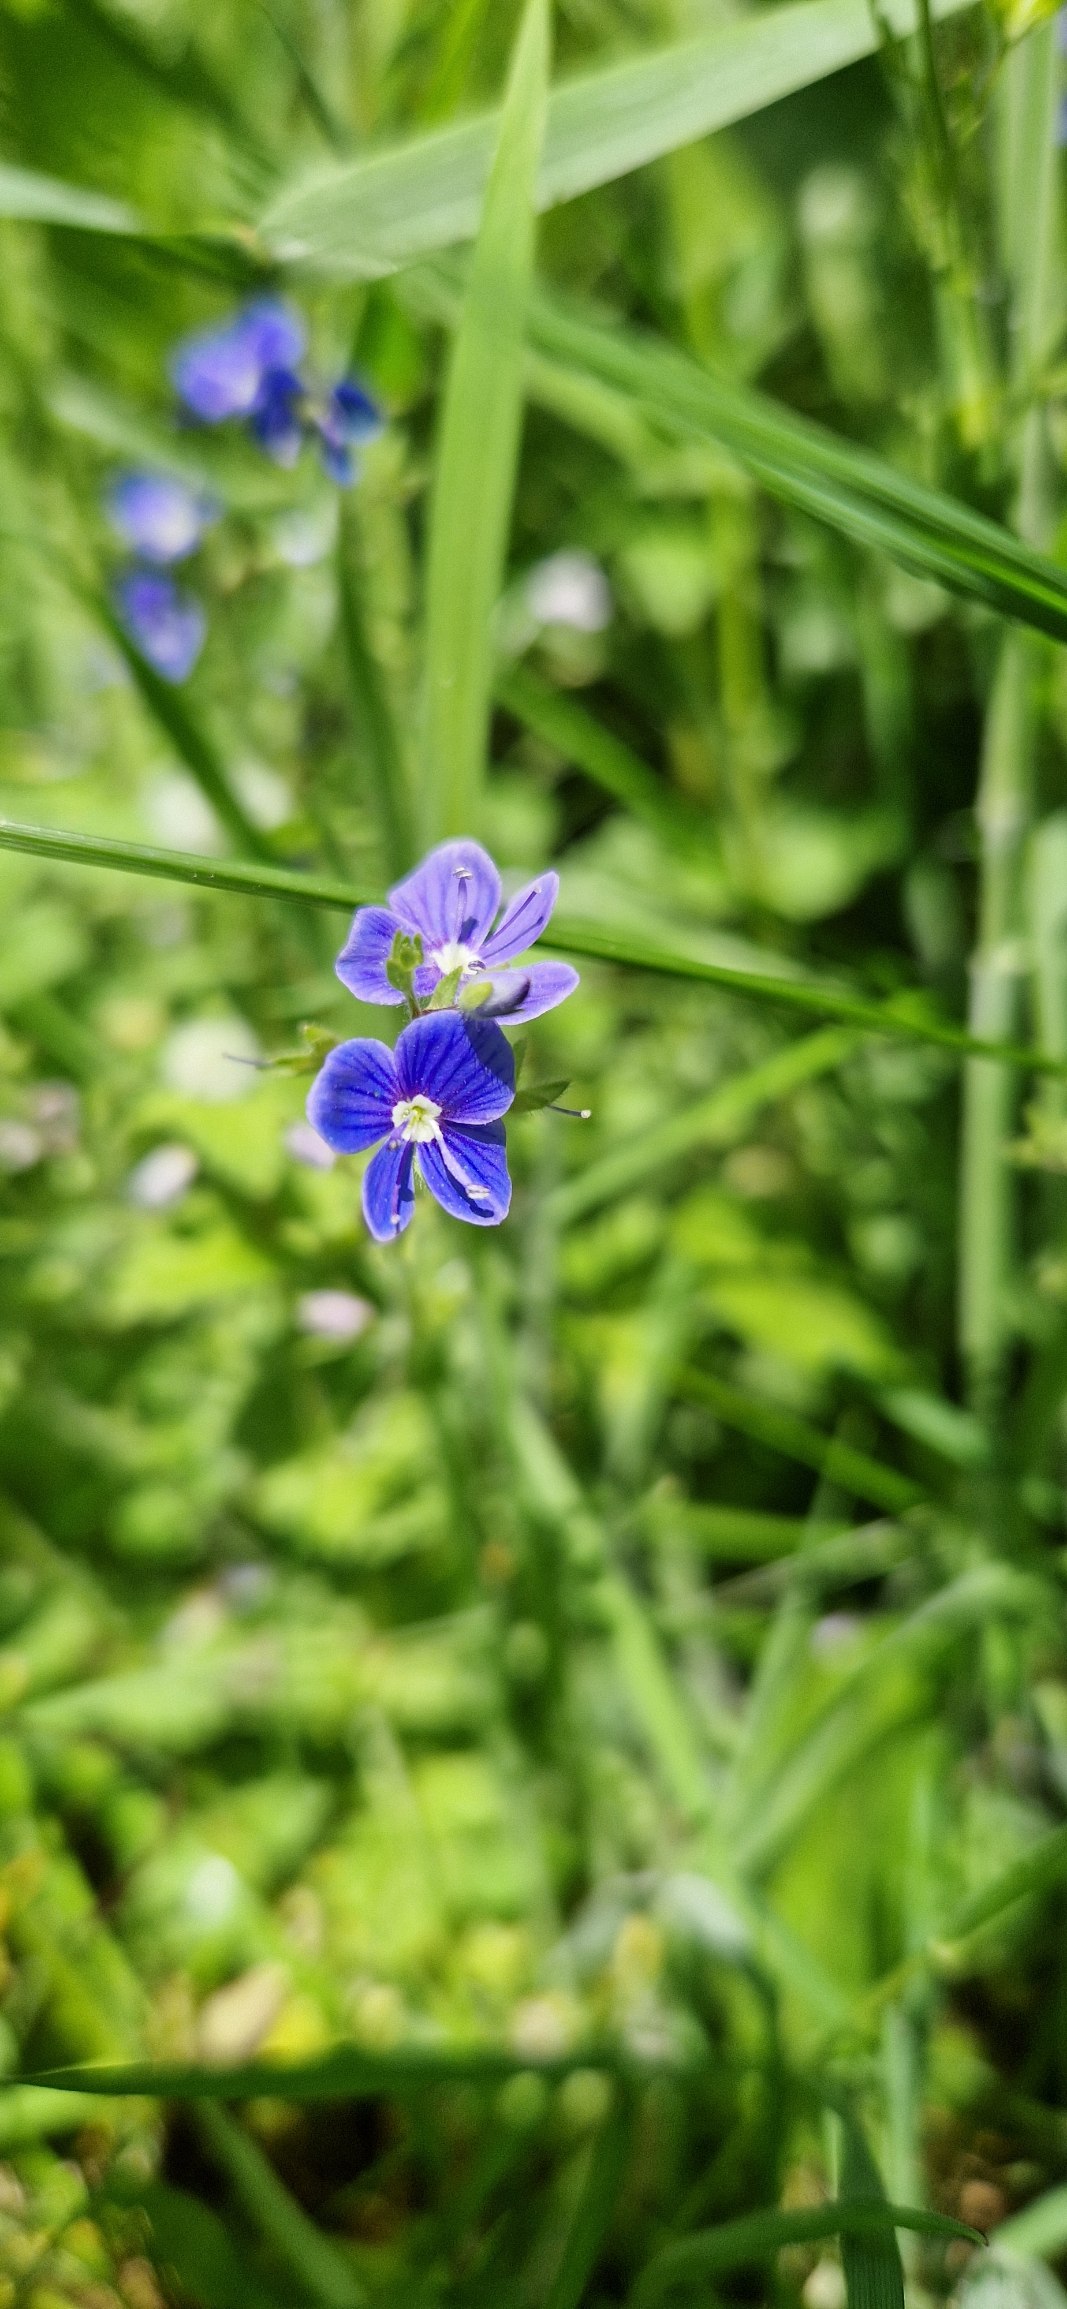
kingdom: Plantae
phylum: Tracheophyta
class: Magnoliopsida
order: Lamiales
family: Plantaginaceae
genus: Veronica
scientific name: Veronica chamaedrys
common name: Tveskægget ærenpris
